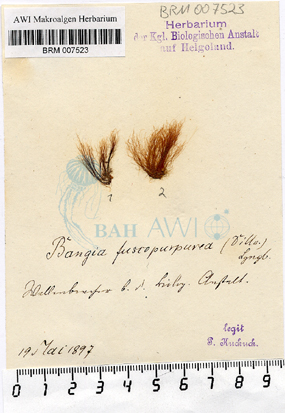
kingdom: Plantae
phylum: Rhodophyta
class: Bangiophyceae
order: Bangiales
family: Bangiaceae
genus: Bangia
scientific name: Bangia fuscopurpurea
